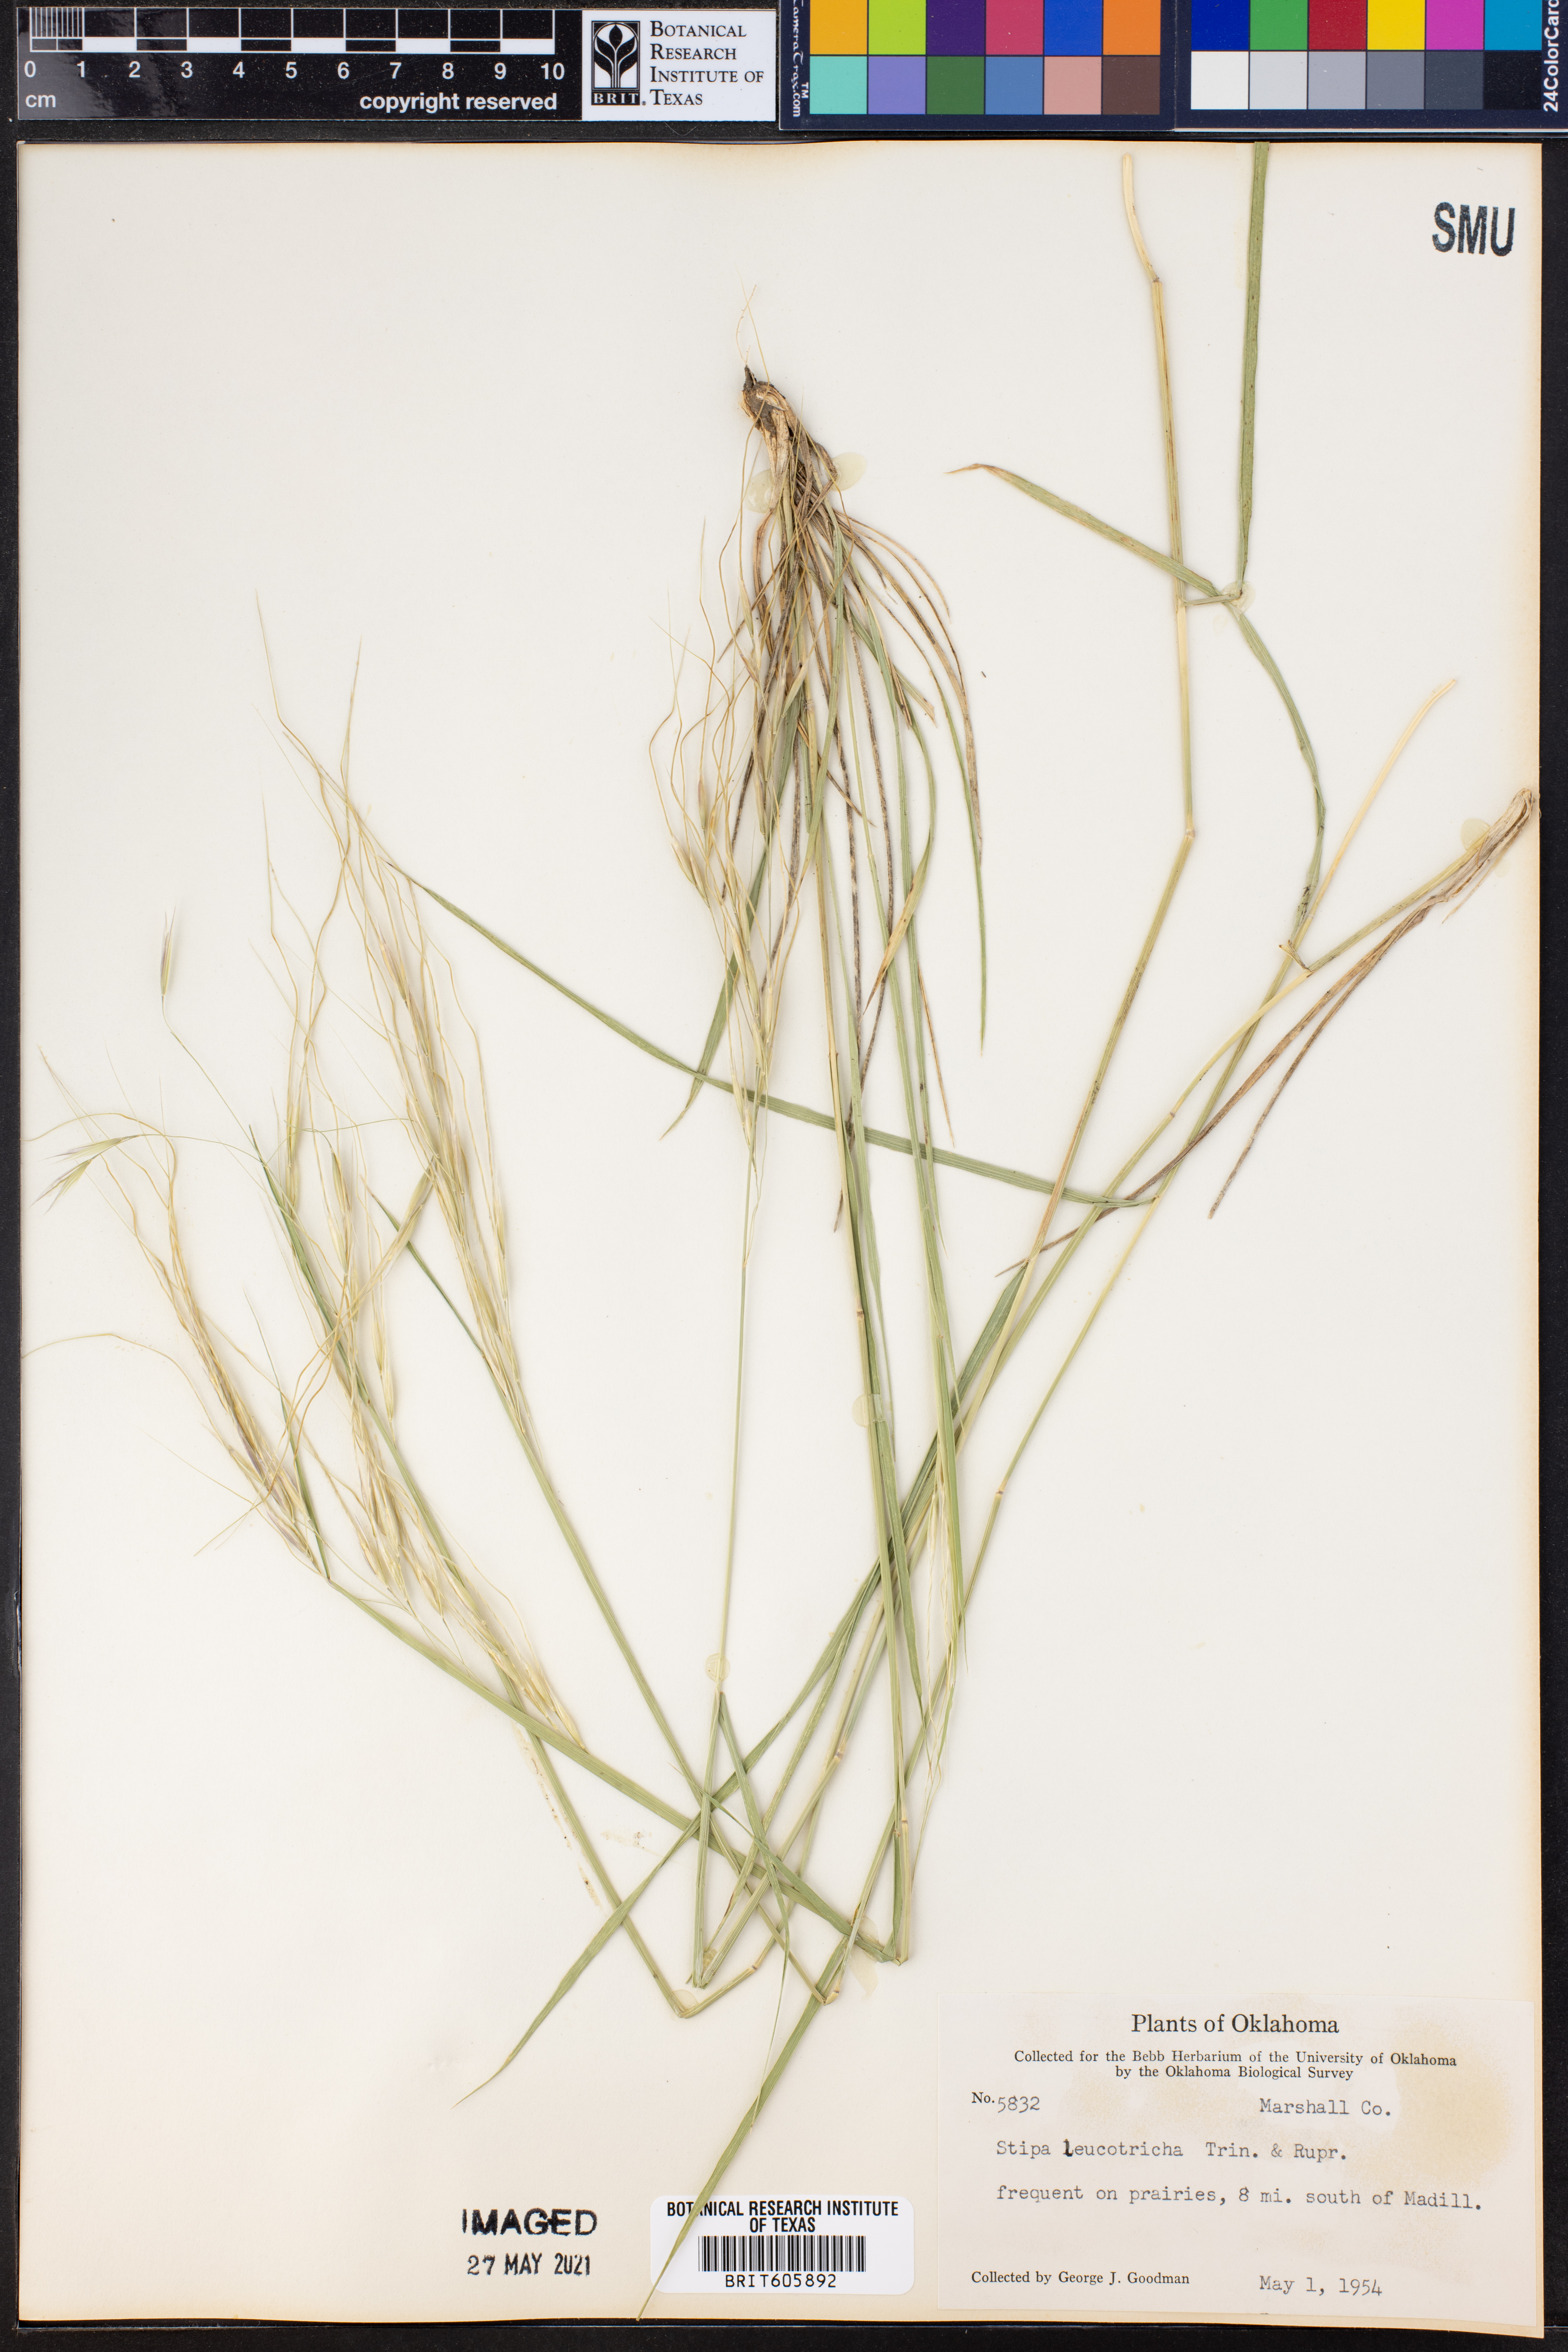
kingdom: Plantae
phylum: Tracheophyta
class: Liliopsida
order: Poales
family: Poaceae
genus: Nassella
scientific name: Nassella leucotricha
